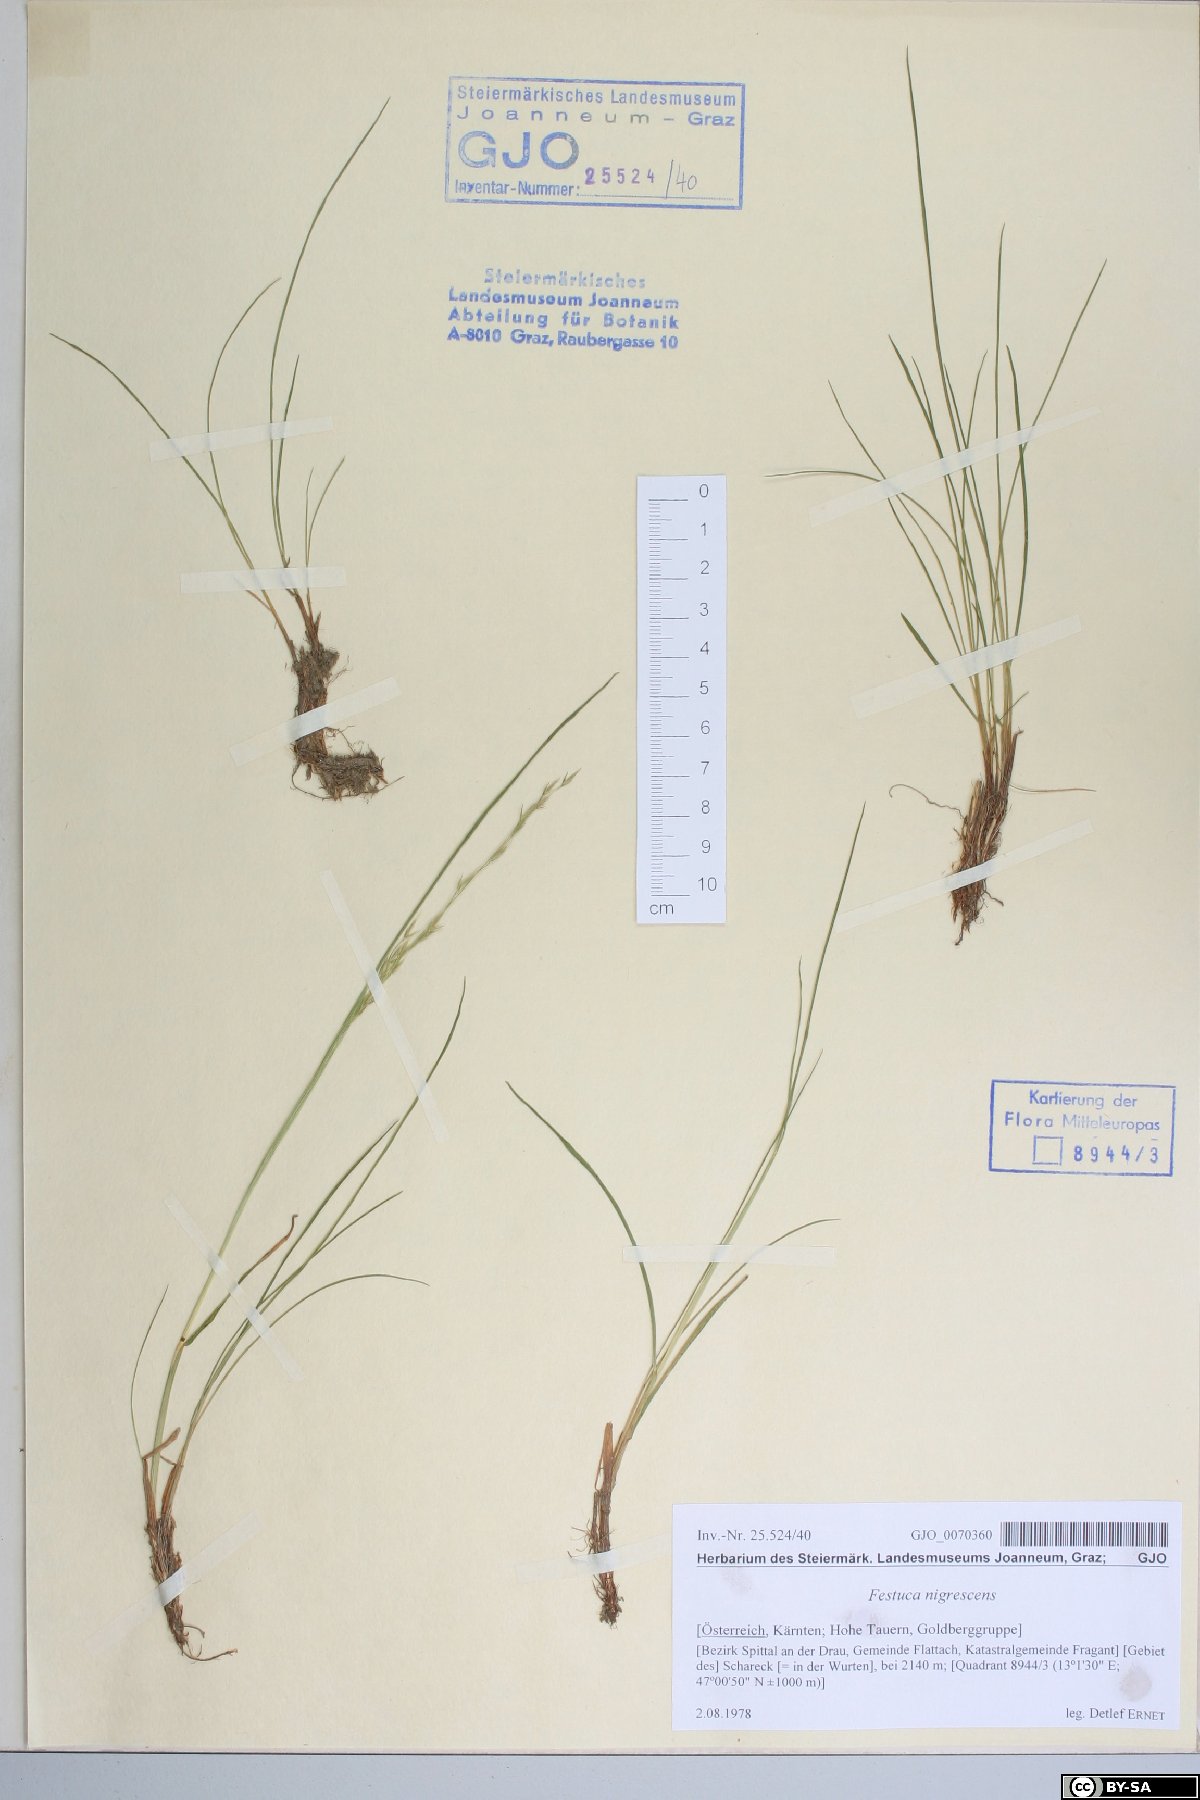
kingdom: Plantae
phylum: Tracheophyta
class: Liliopsida
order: Poales
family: Poaceae
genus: Festuca
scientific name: Festuca nigrescens
